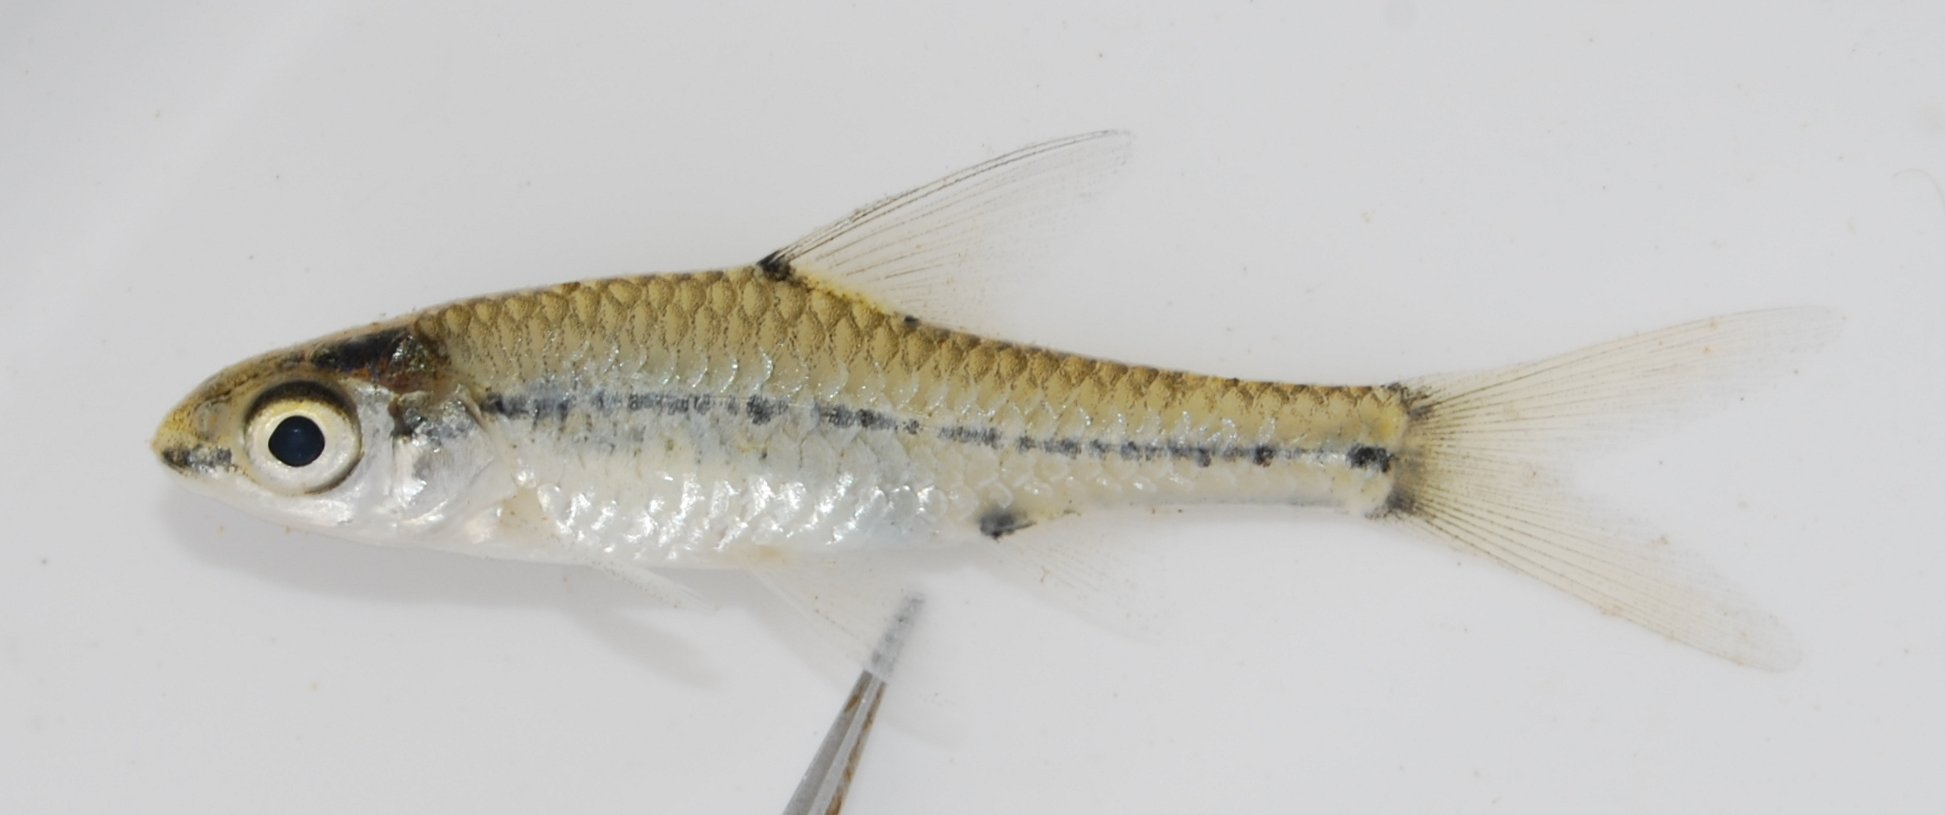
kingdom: Animalia
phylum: Chordata
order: Cypriniformes
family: Cyprinidae
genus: Enteromius
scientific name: Enteromius barnardi
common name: Blackback barb
